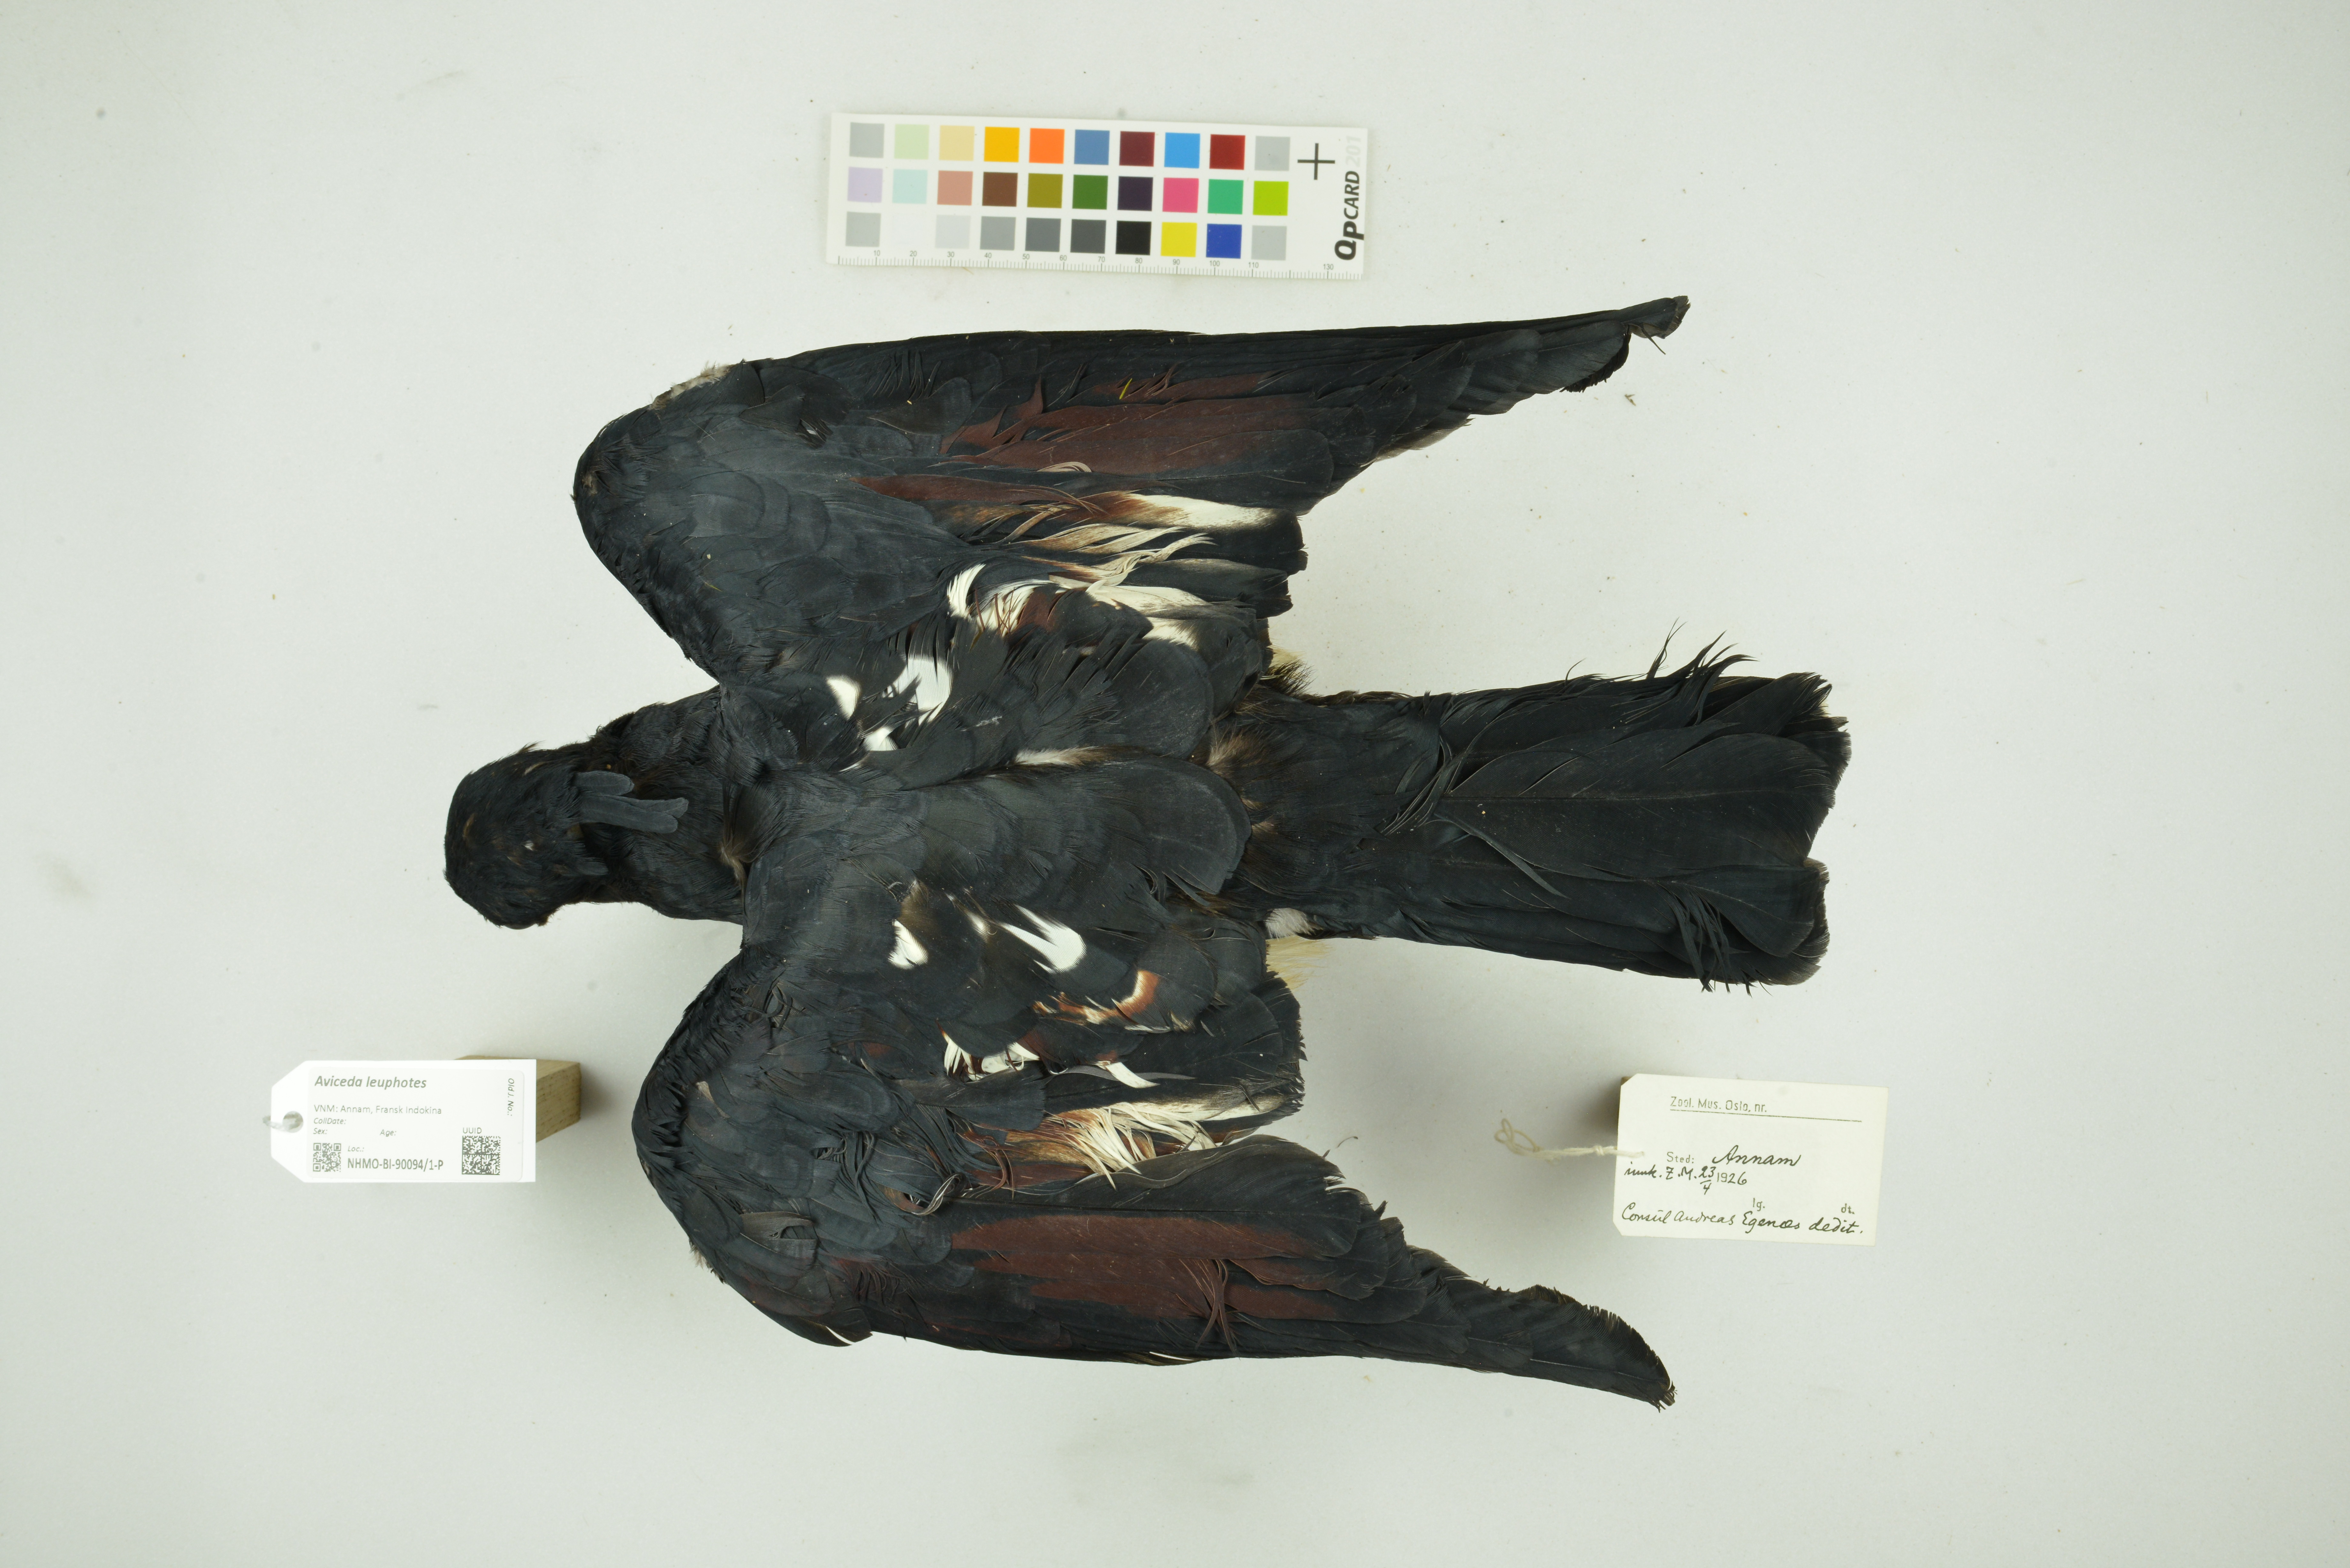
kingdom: Animalia
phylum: Chordata
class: Aves
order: Accipitriformes
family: Accipitridae
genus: Aviceda
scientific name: Aviceda leuphotes
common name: Black baza
